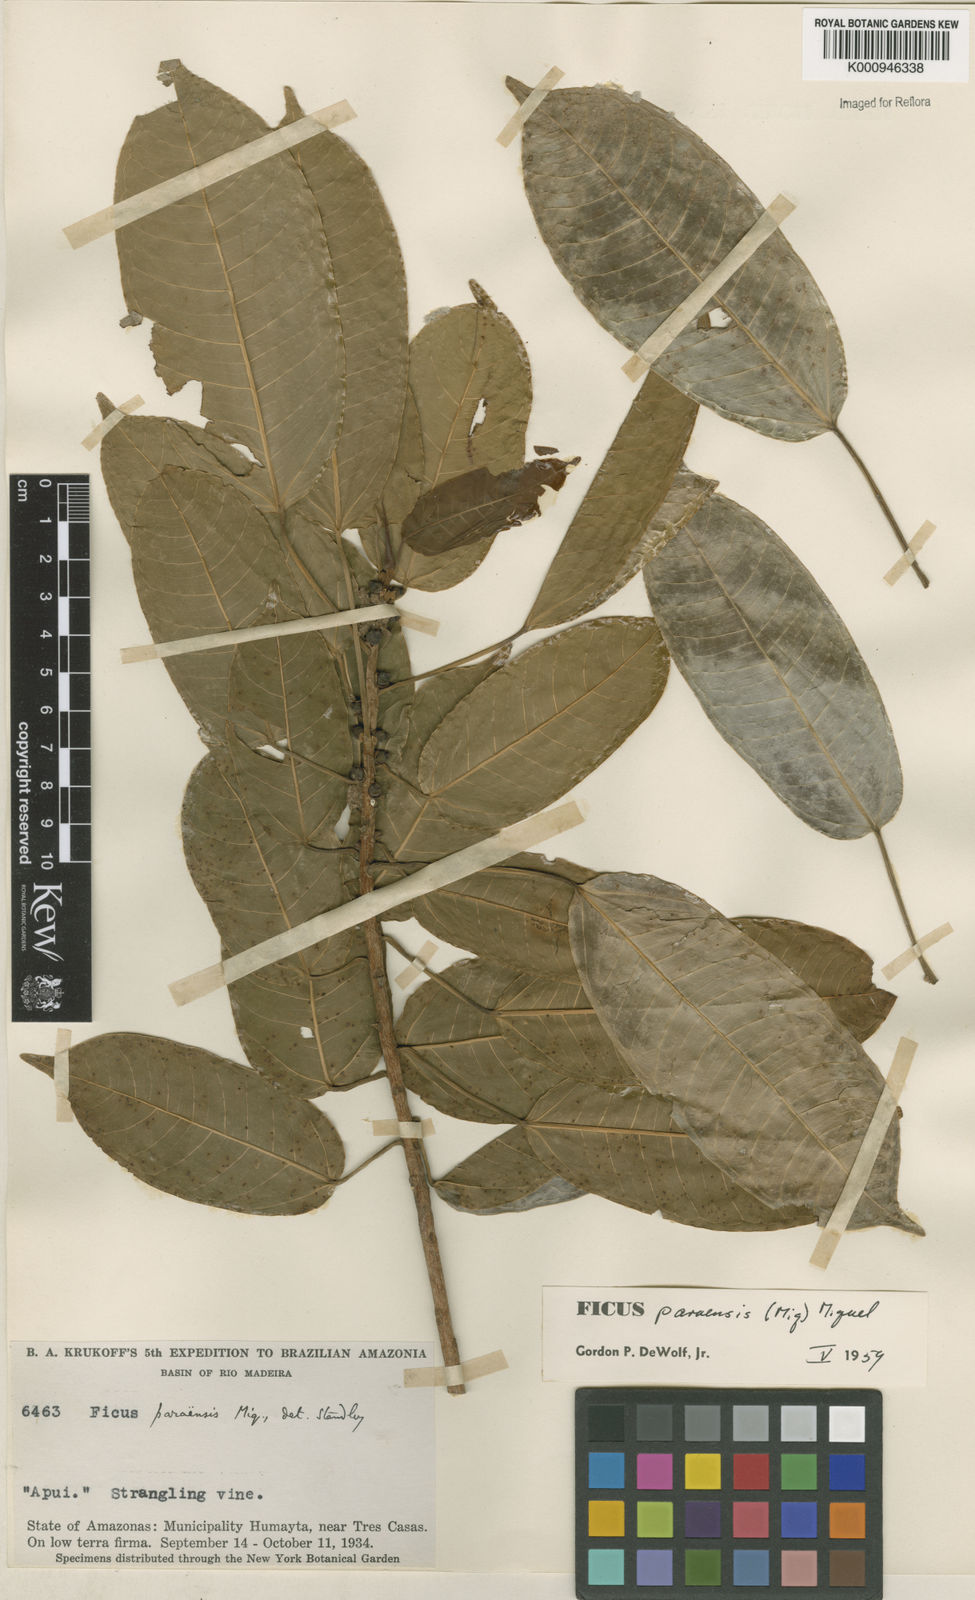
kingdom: Plantae
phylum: Tracheophyta
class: Magnoliopsida
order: Rosales
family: Moraceae
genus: Ficus
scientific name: Ficus paraensis
